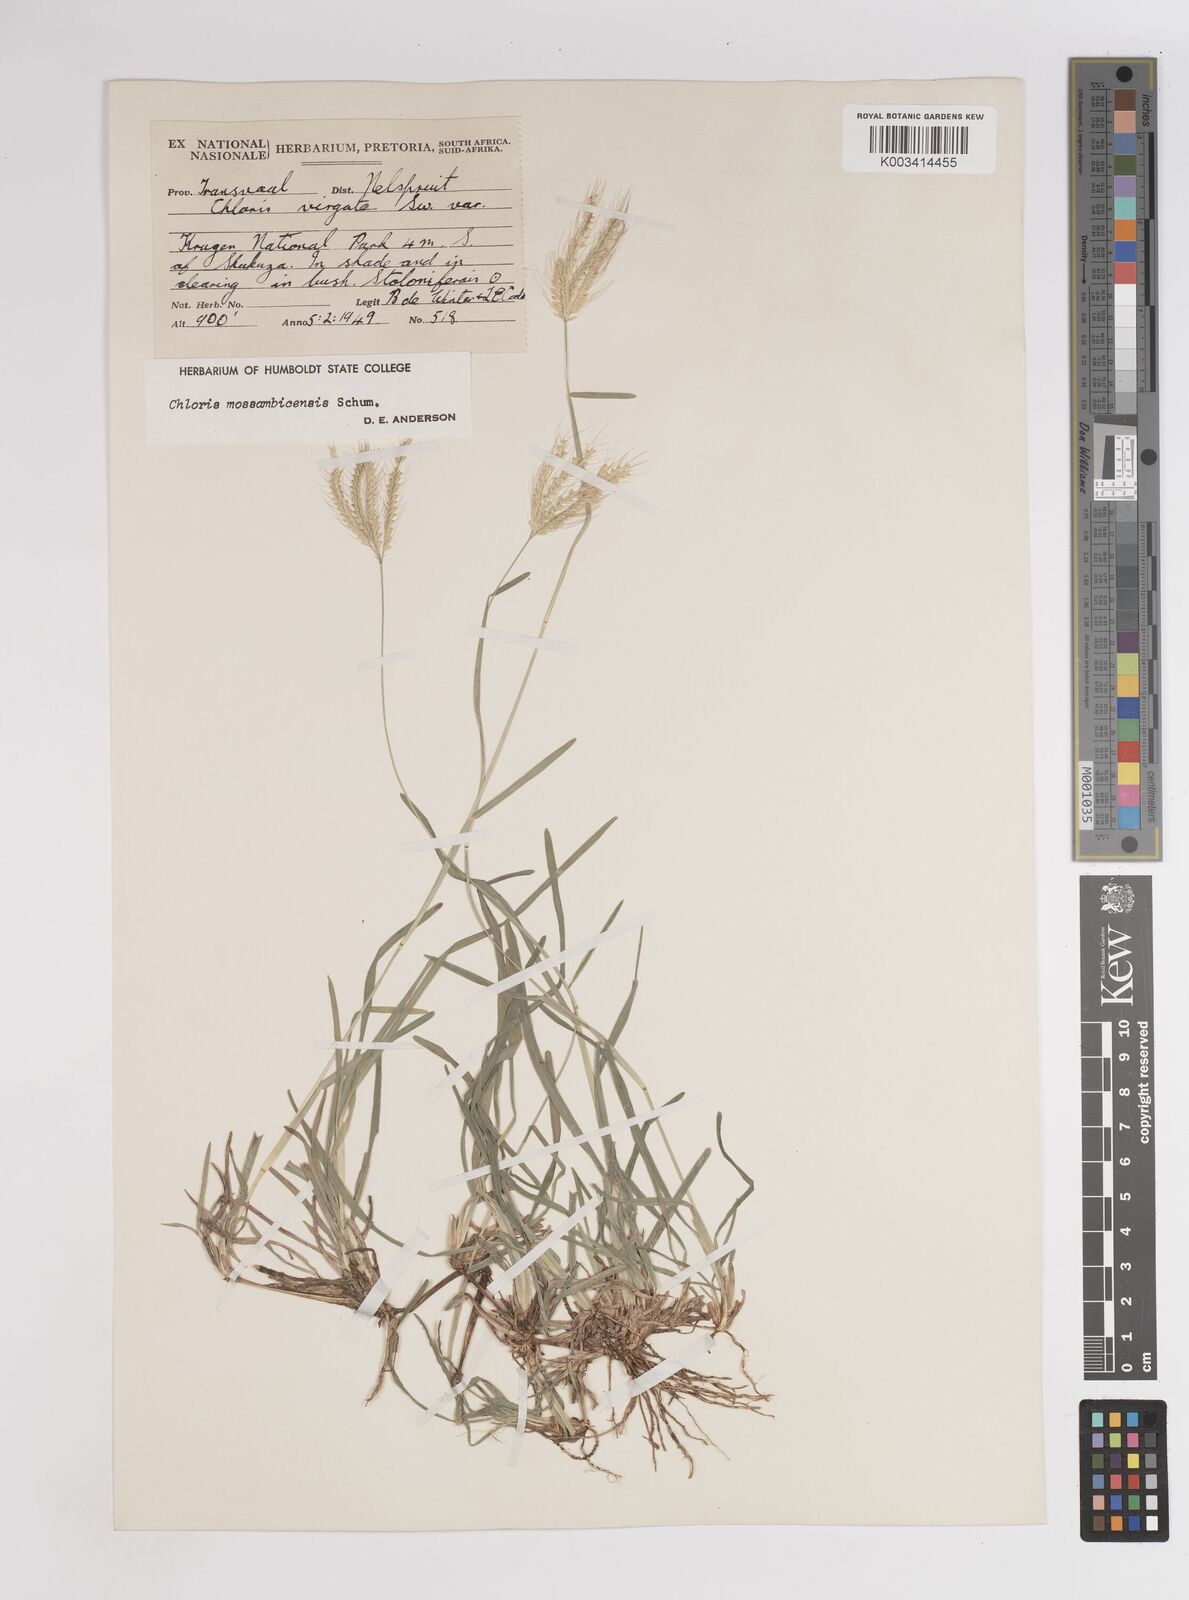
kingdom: Plantae
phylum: Tracheophyta
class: Liliopsida
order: Poales
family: Poaceae
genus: Chloris
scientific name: Chloris mossambicensis
